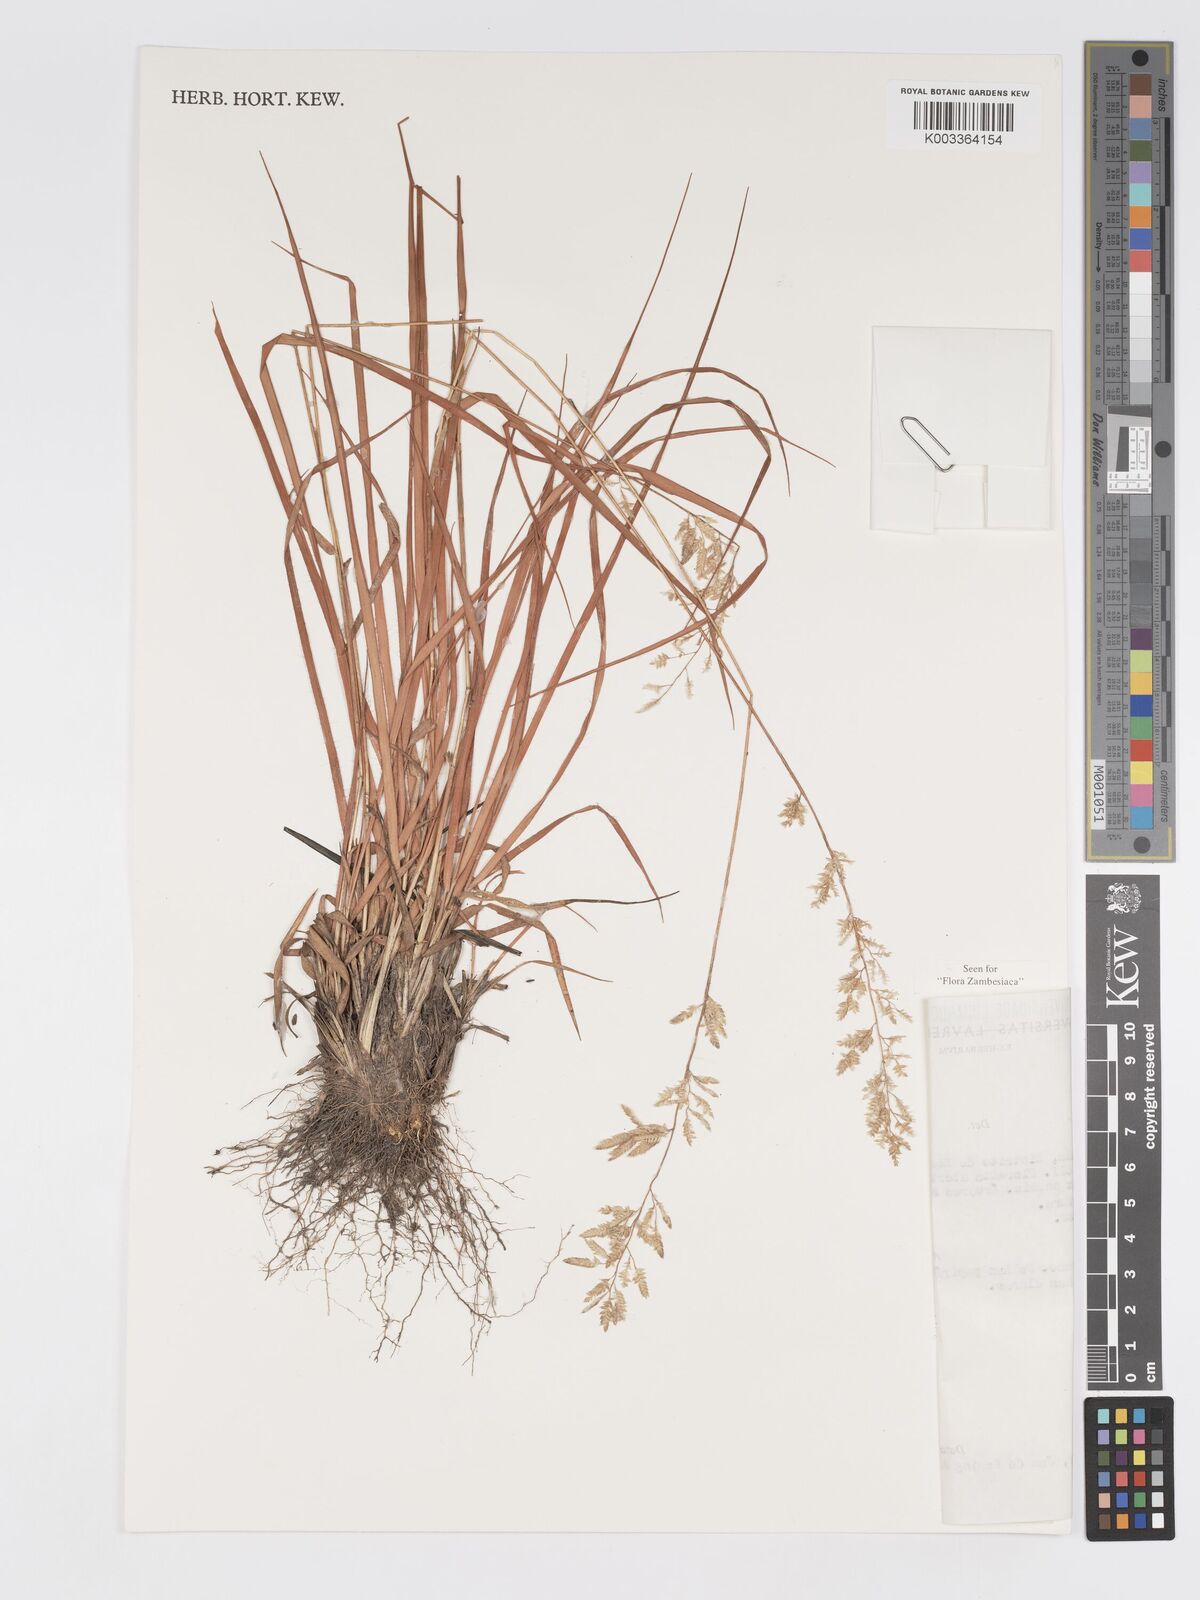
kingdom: Plantae
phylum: Tracheophyta
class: Liliopsida
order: Poales
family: Poaceae
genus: Eragrostis
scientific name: Eragrostis racemosa
